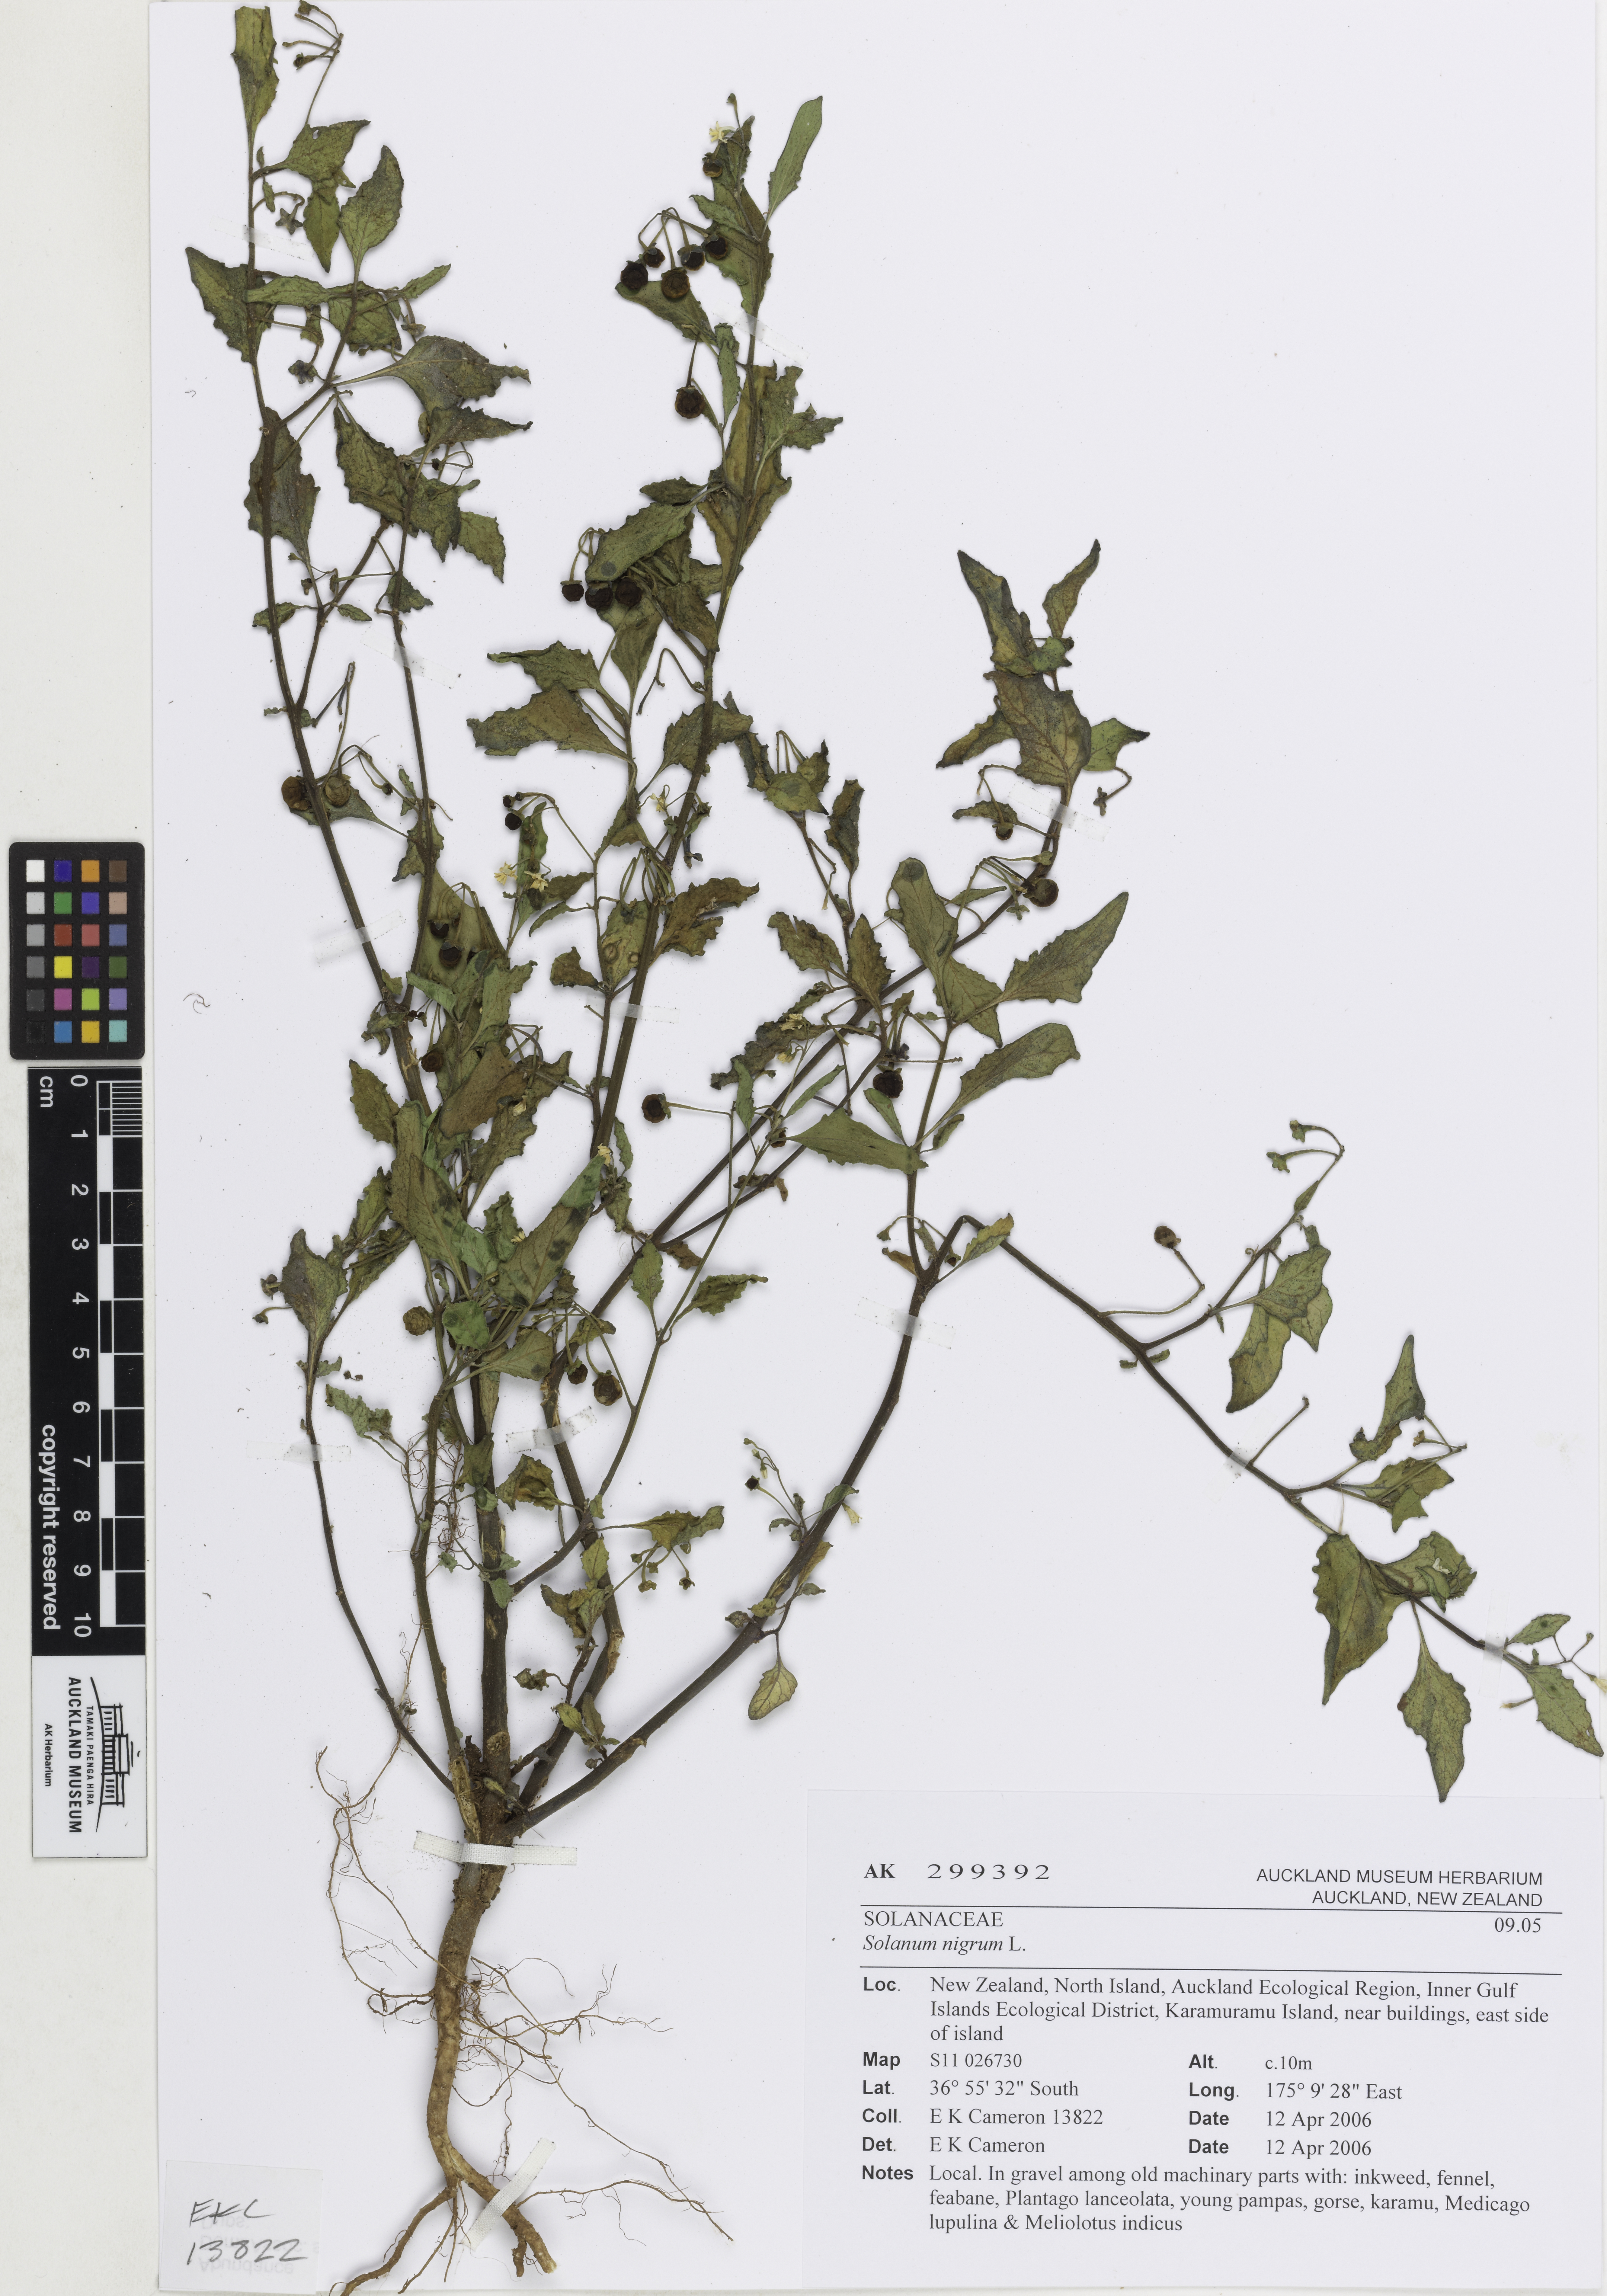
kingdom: Plantae
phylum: Tracheophyta
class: Magnoliopsida
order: Solanales
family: Solanaceae
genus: Solanum
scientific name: Solanum nigrum
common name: Black nightshade
